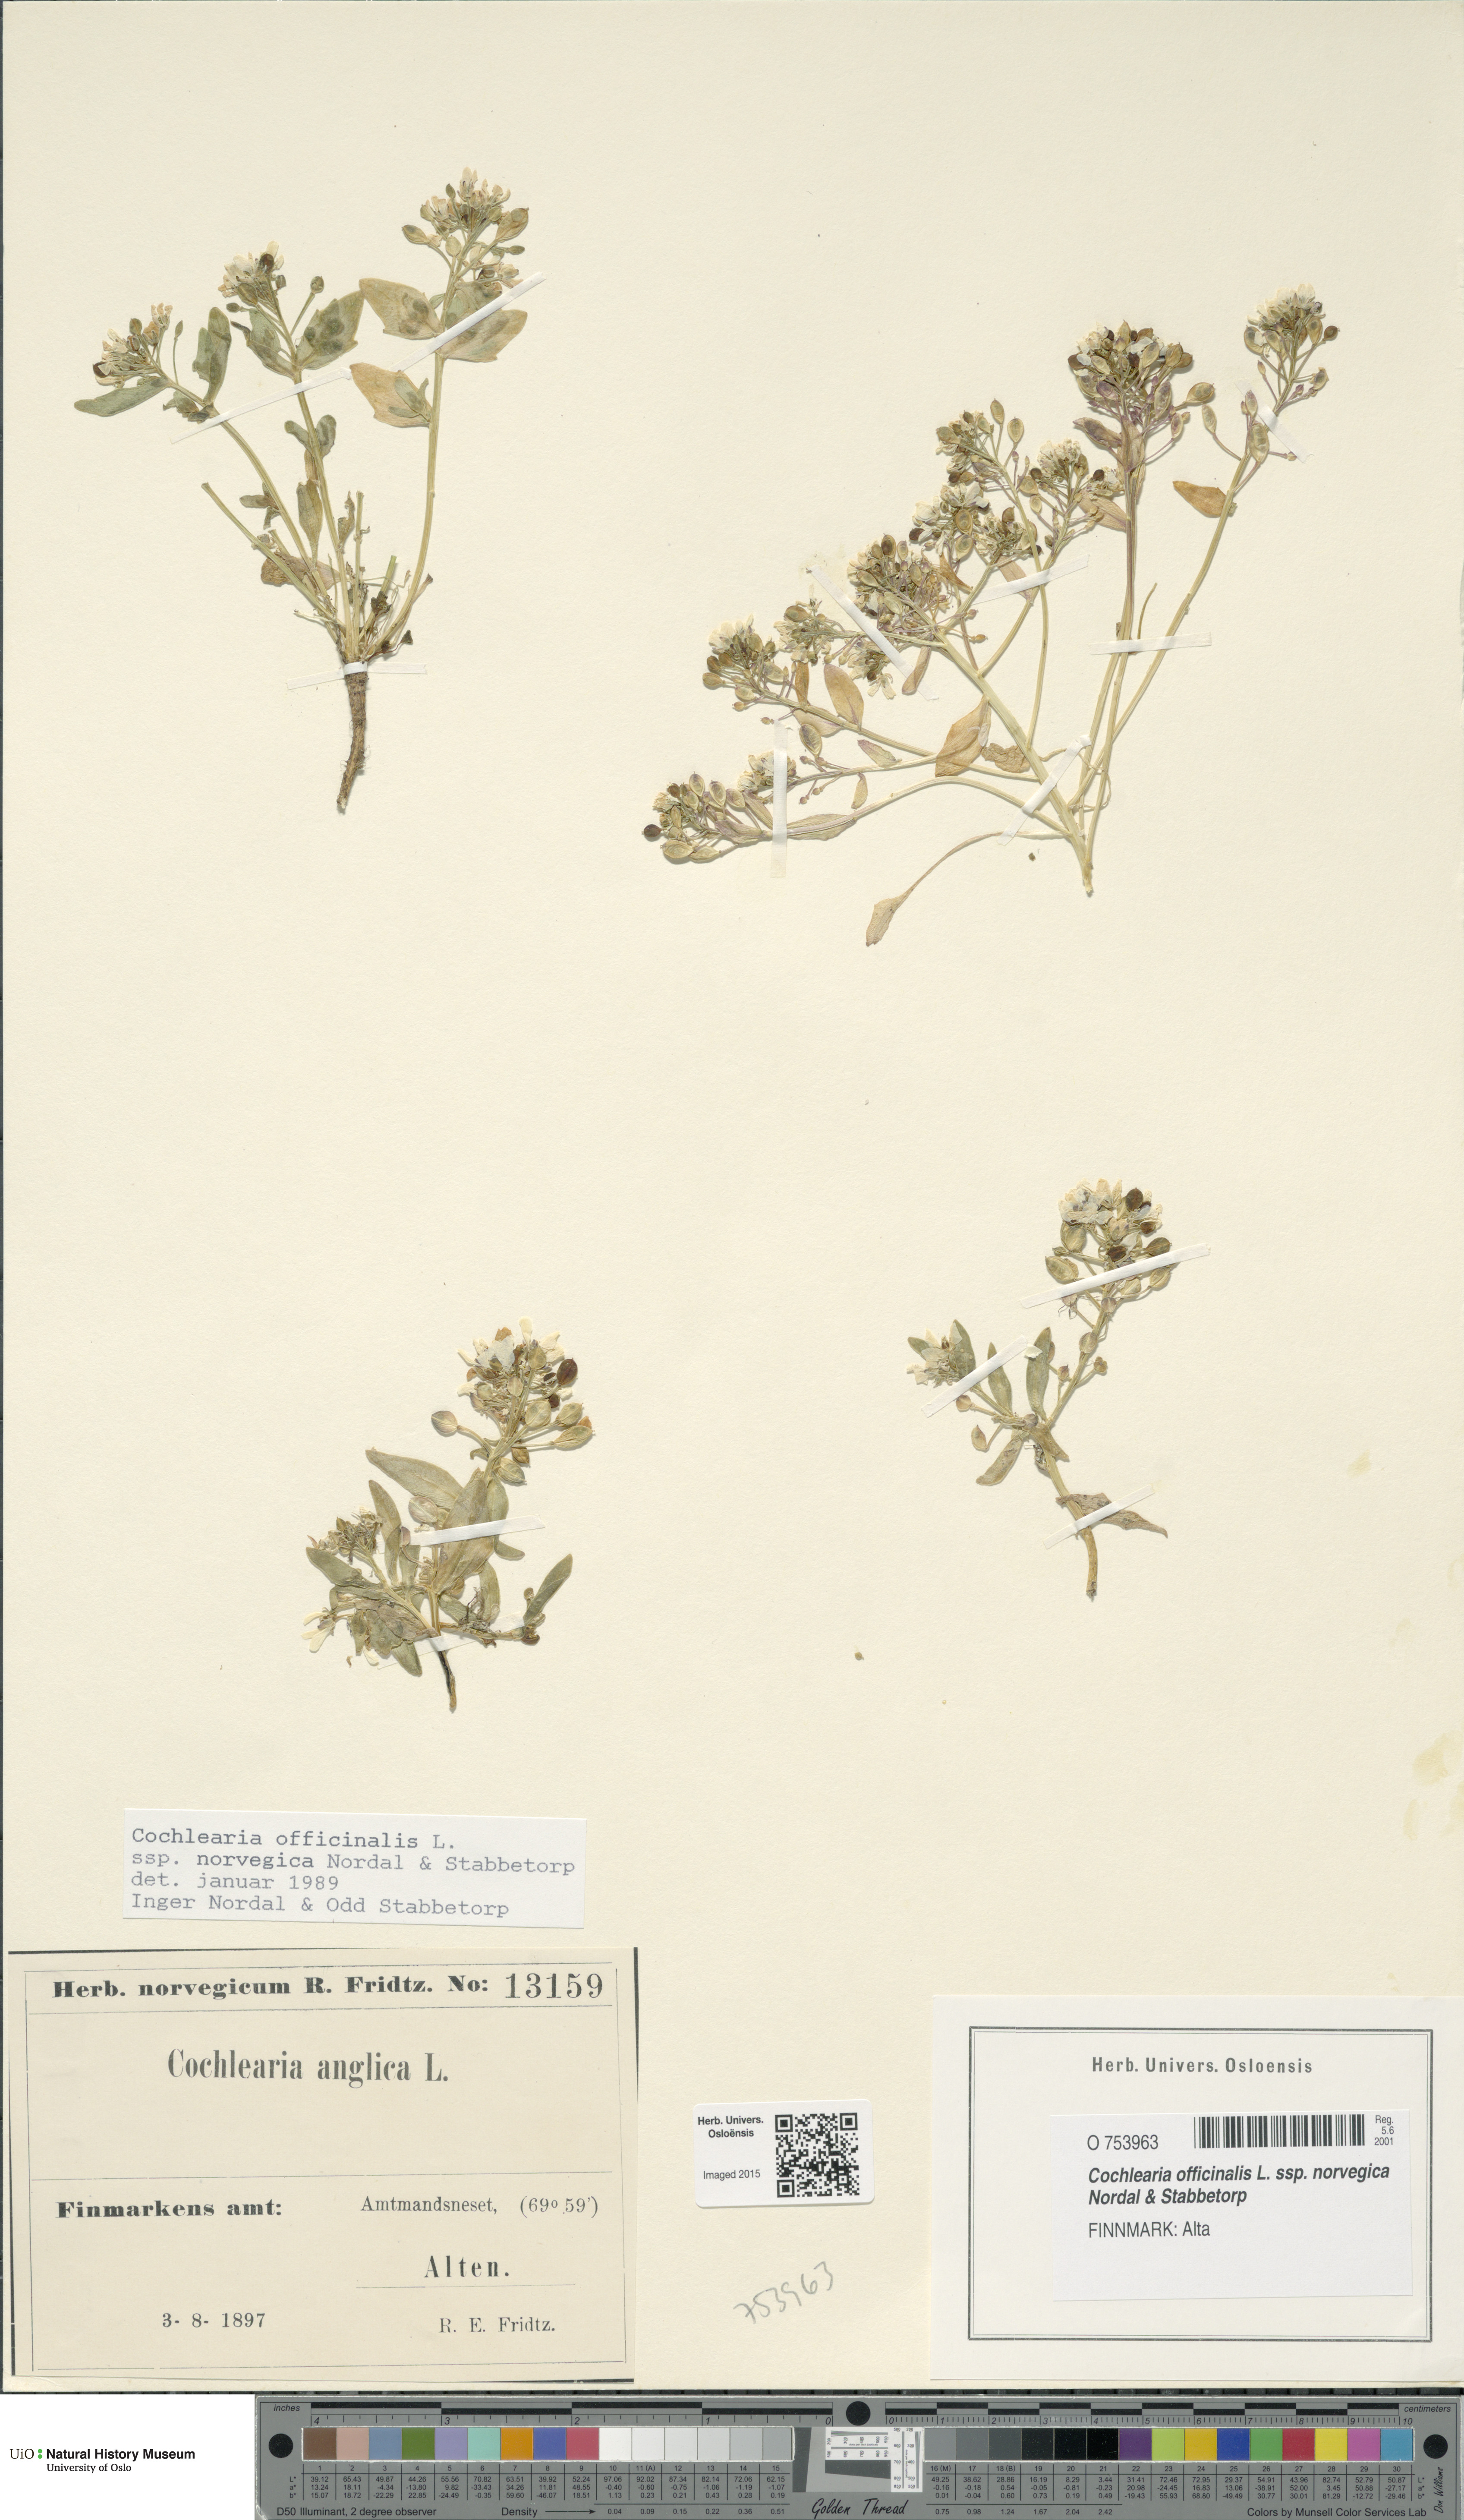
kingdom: Plantae
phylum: Tracheophyta
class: Magnoliopsida
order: Brassicales
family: Brassicaceae
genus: Cochlearia
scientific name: Cochlearia officinalis
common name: Scurvy-grass
